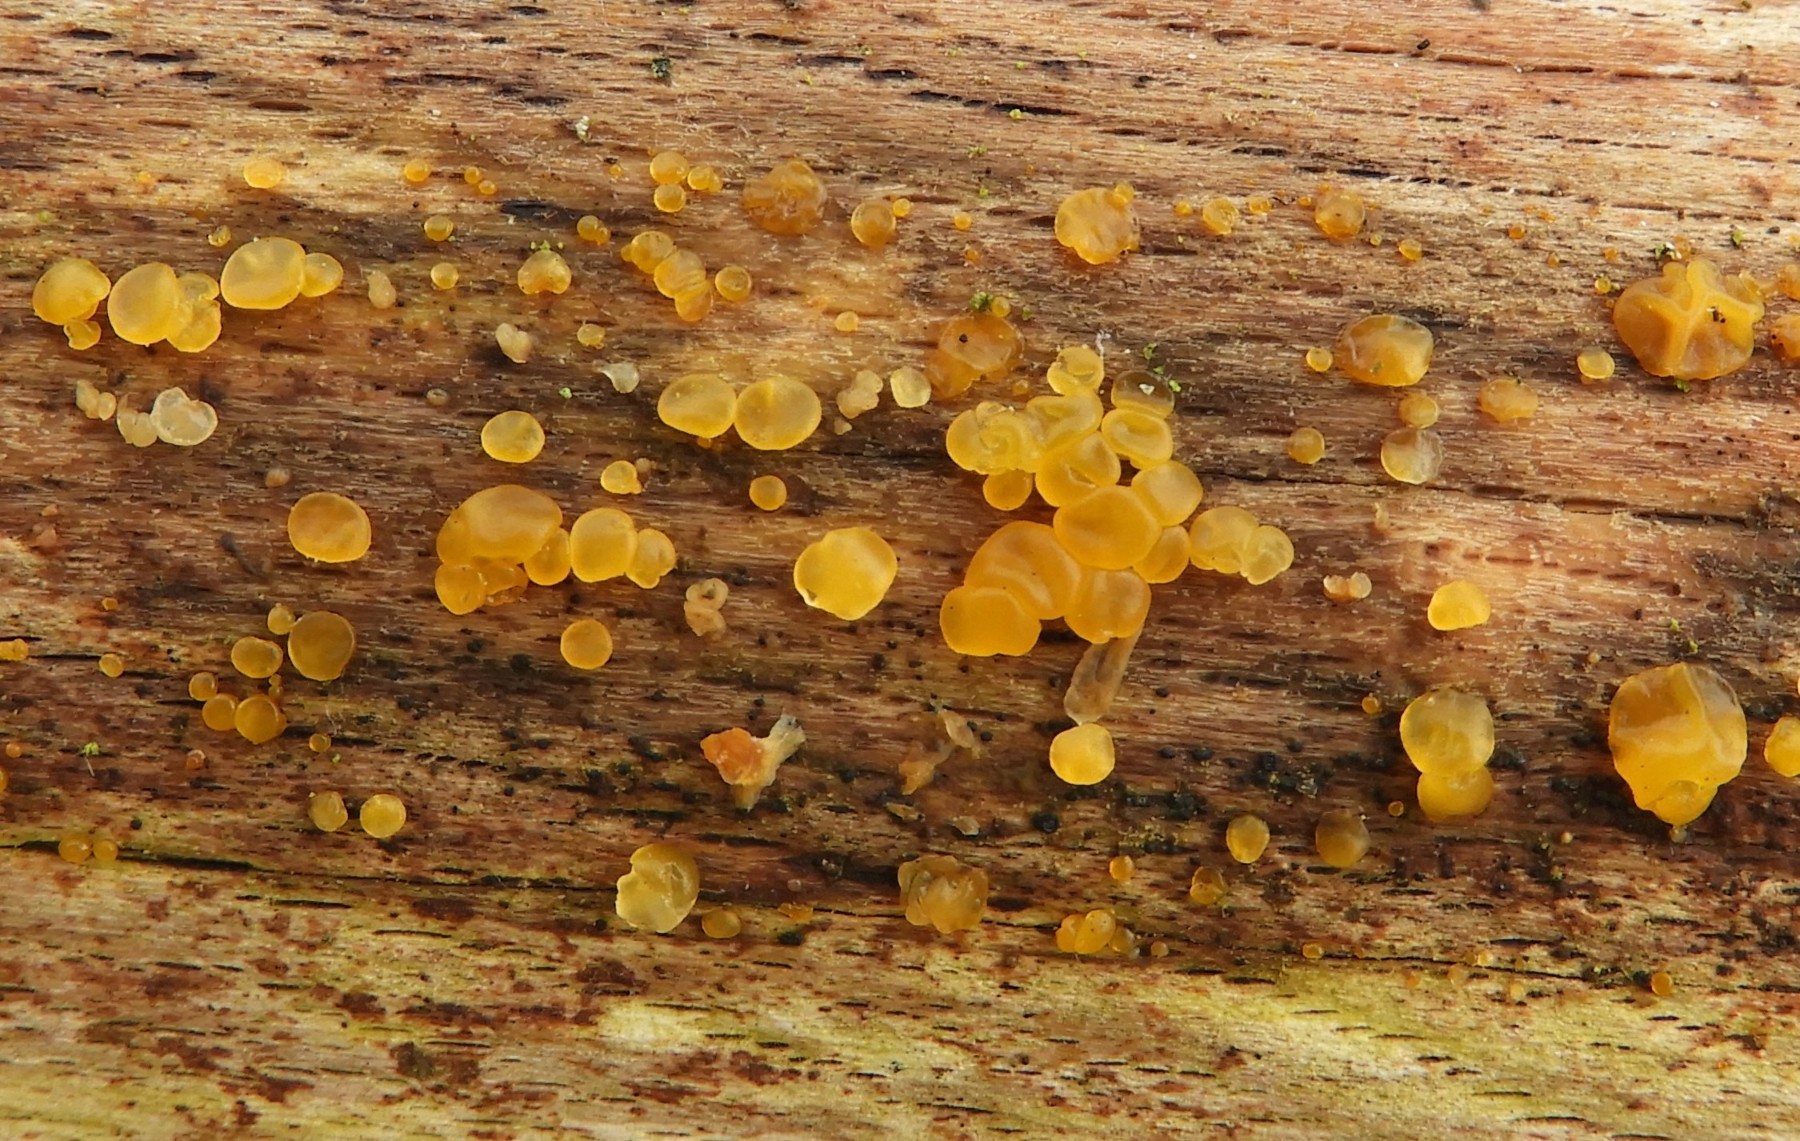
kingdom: Fungi
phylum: Basidiomycota
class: Dacrymycetes
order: Dacrymycetales
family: Dacrymycetaceae
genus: Dacrymyces
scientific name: Dacrymyces stillatus
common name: almindelig tåresvamp
